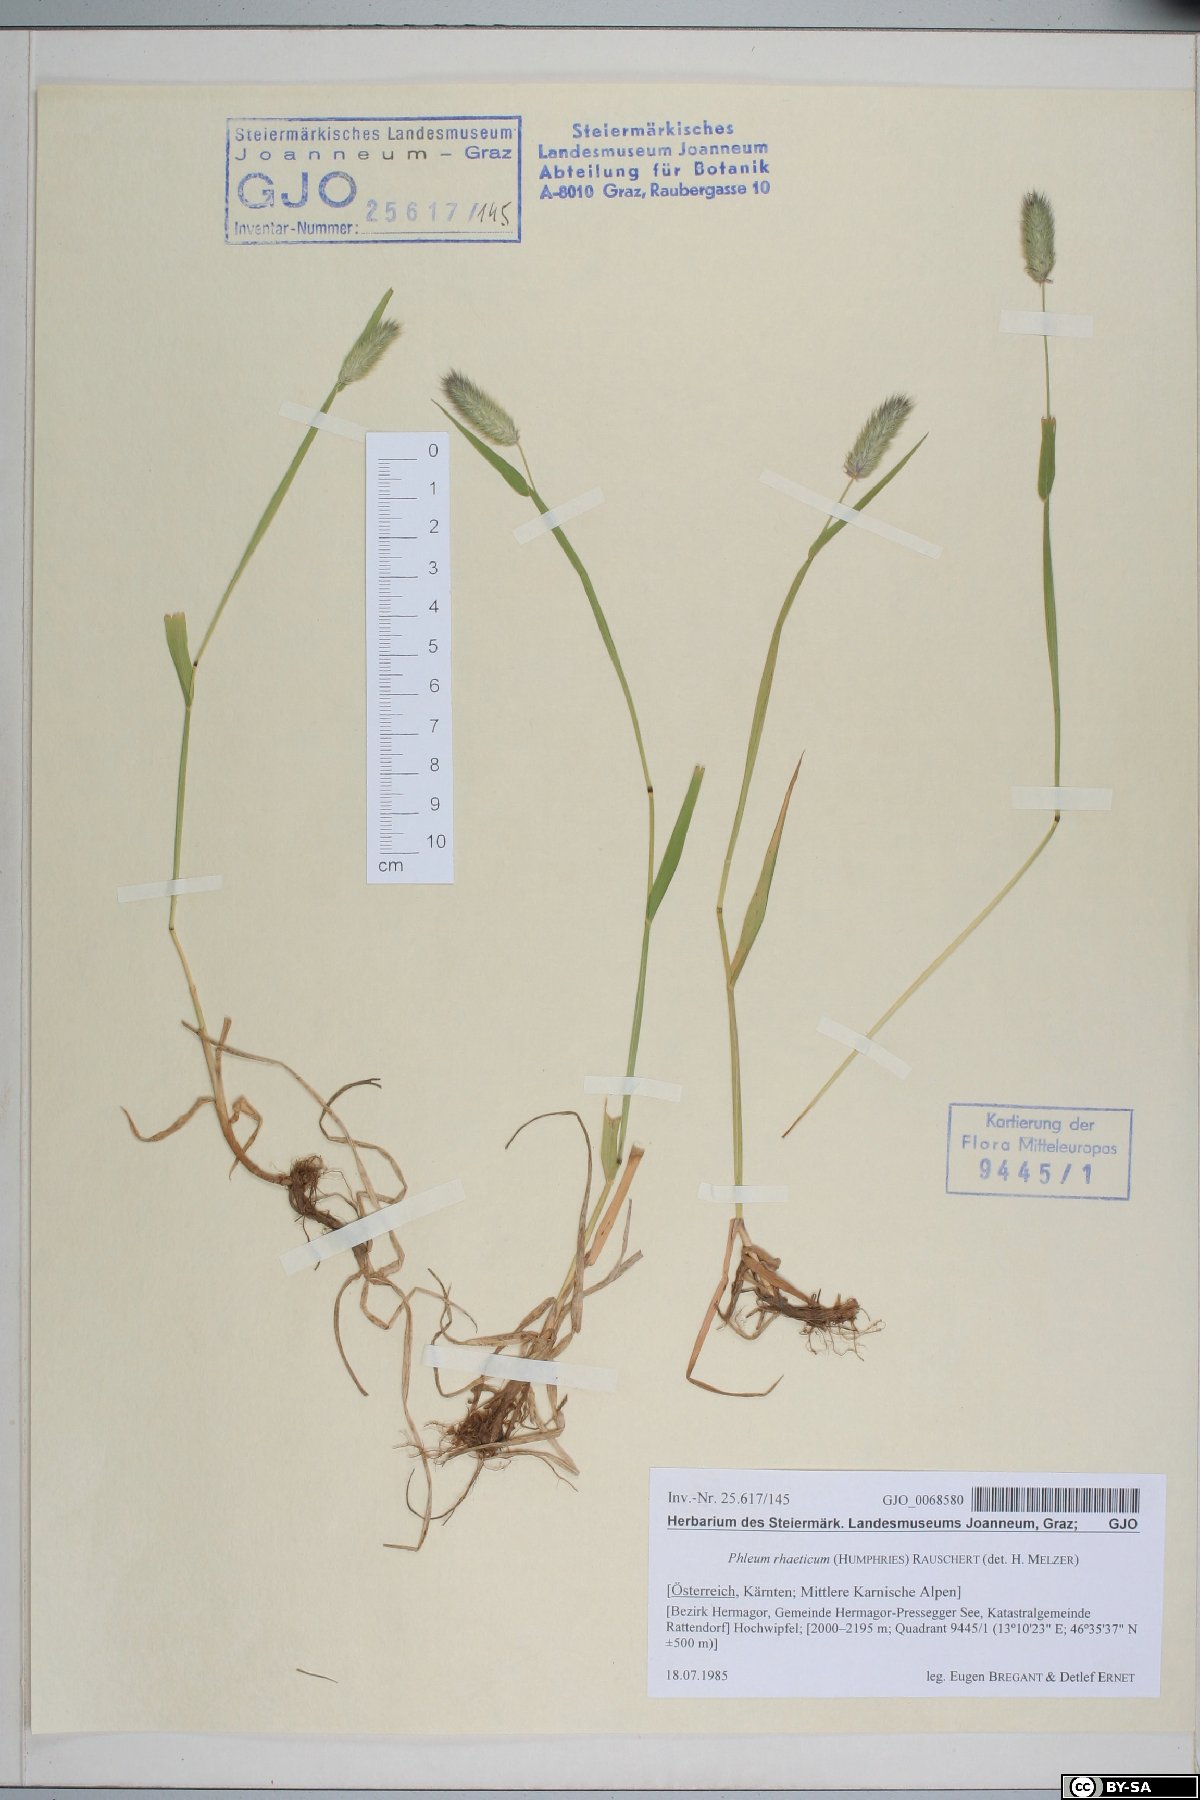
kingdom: Plantae
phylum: Tracheophyta
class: Liliopsida
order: Poales
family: Poaceae
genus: Phleum
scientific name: Phleum alpinum
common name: Alpine cat's-tail
